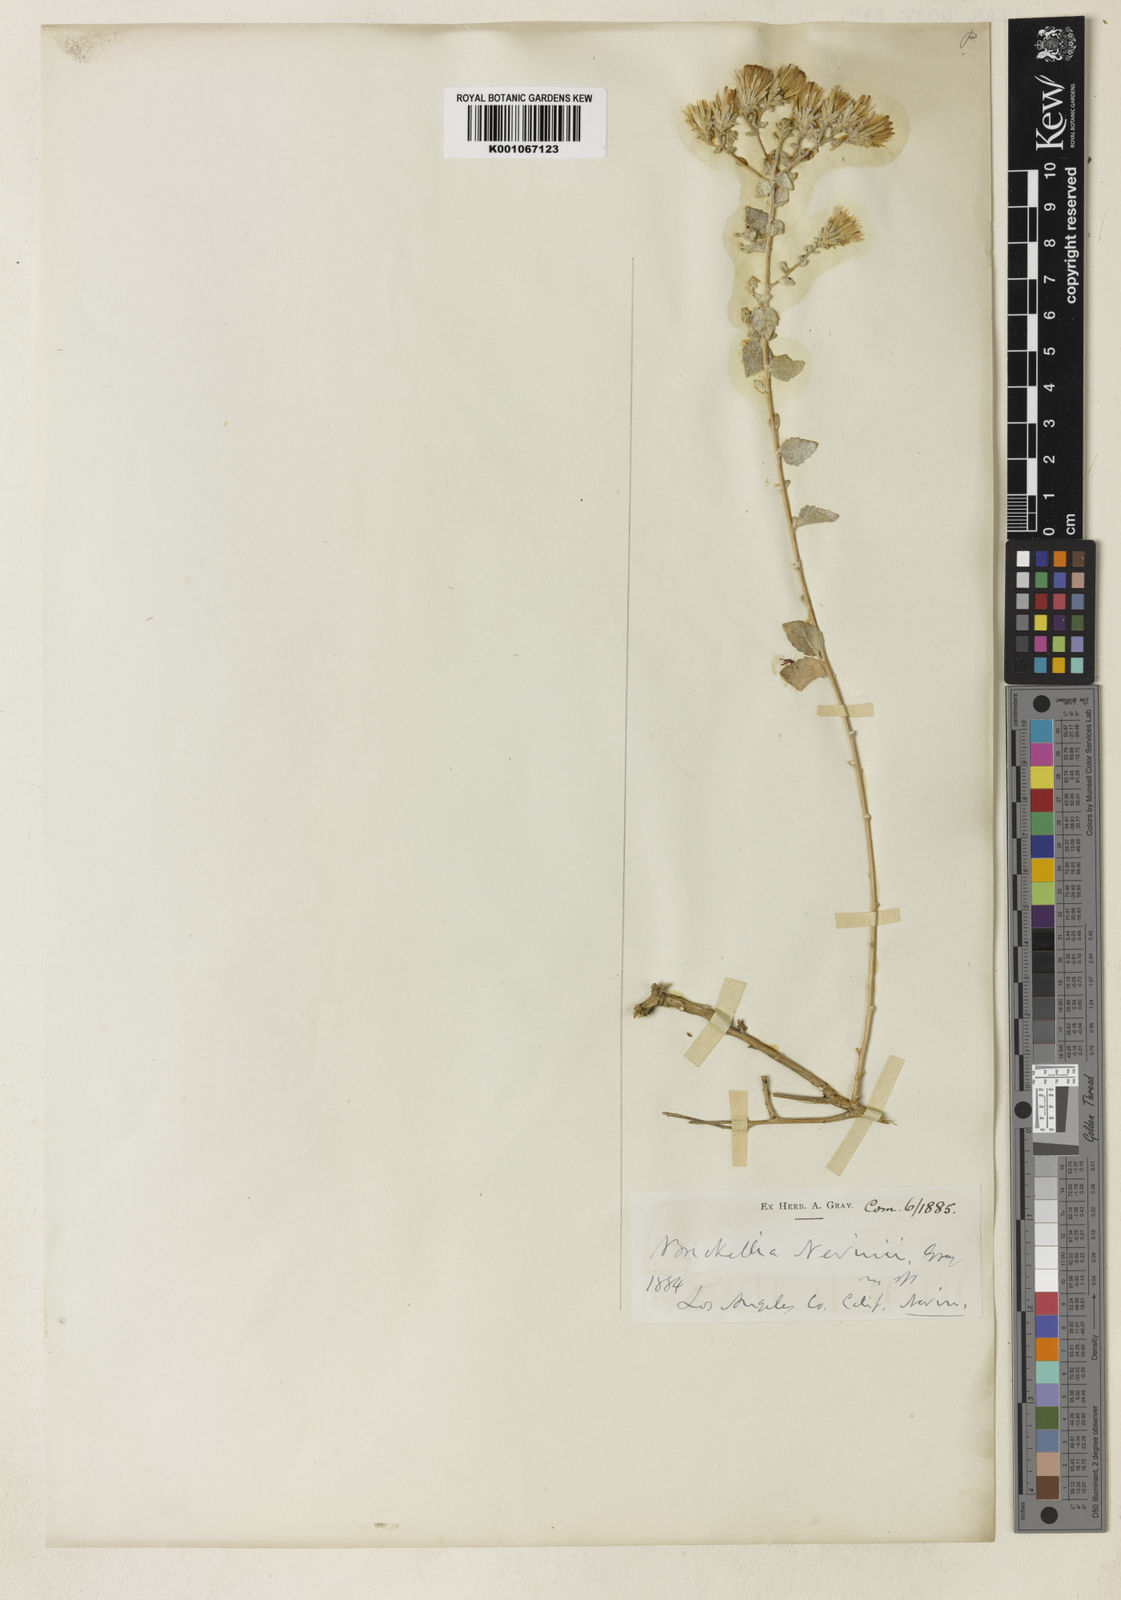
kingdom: Plantae
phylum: Tracheophyta
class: Magnoliopsida
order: Asterales
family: Asteraceae
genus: Brickellia
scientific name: Brickellia nevinii
